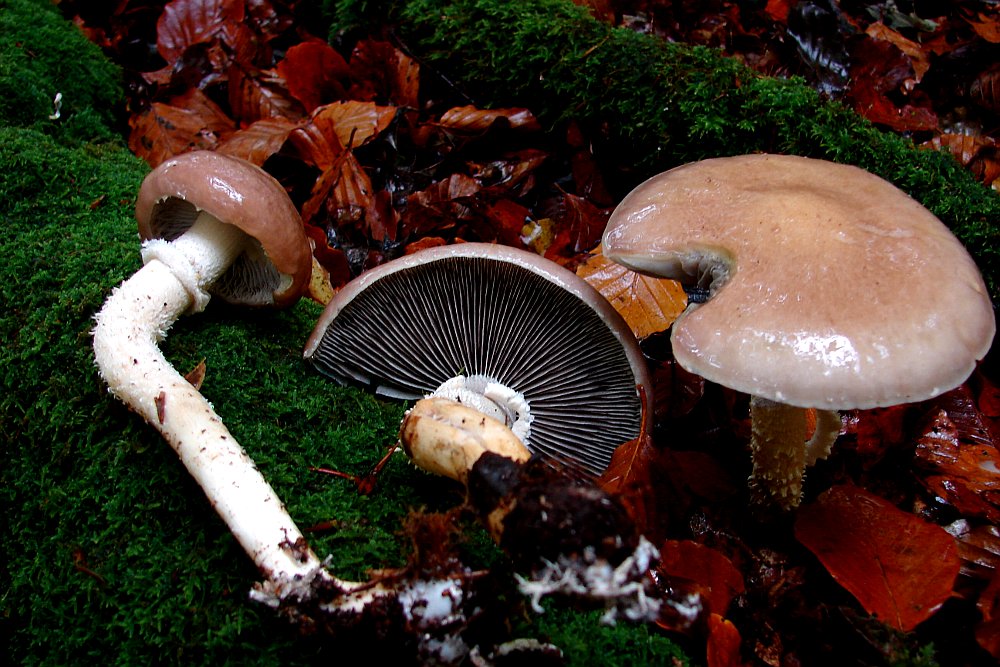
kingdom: Fungi
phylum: Basidiomycota
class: Agaricomycetes
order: Agaricales
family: Strophariaceae
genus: Stropharia
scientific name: Stropharia hornemannii
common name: nordisk bredblad
